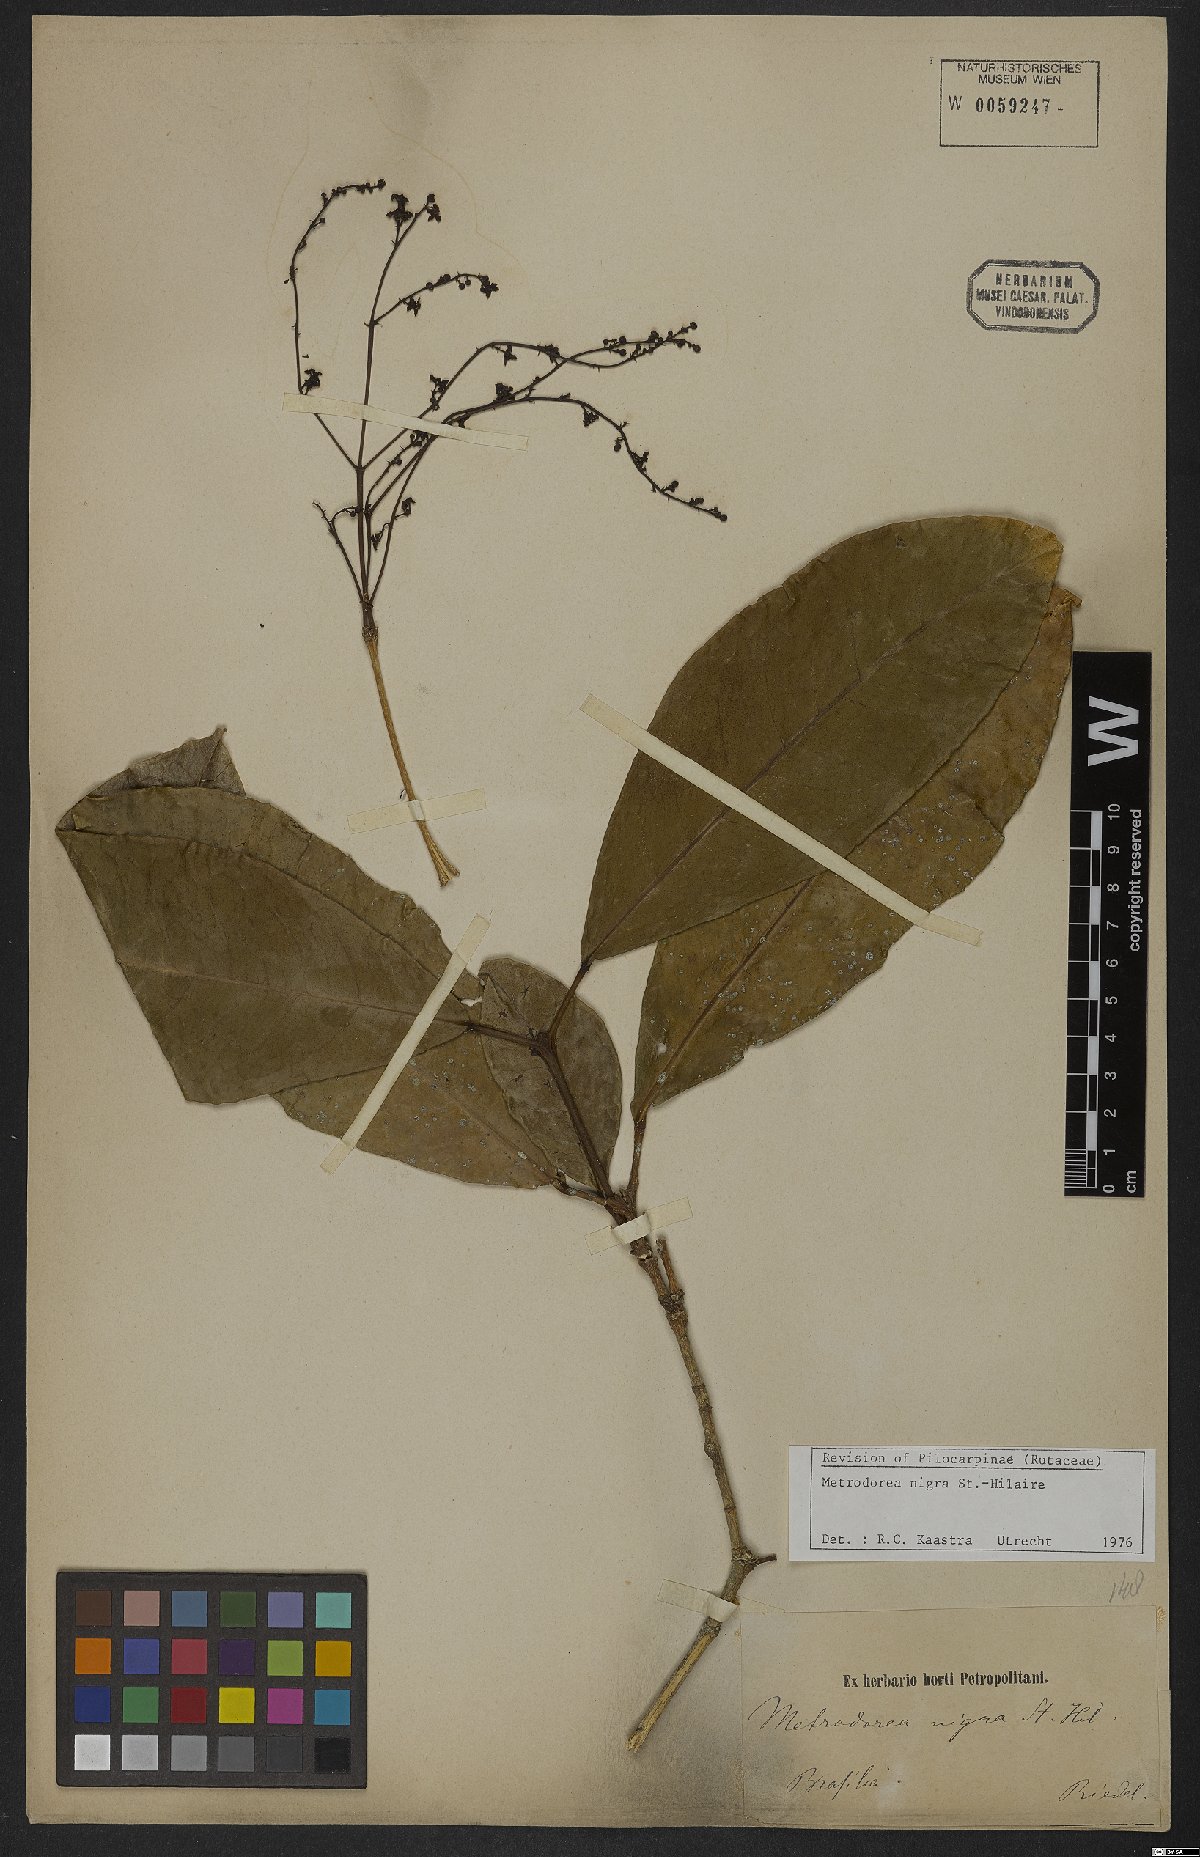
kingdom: Plantae
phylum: Tracheophyta
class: Magnoliopsida
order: Sapindales
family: Rutaceae
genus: Metrodorea
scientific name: Metrodorea nigra
